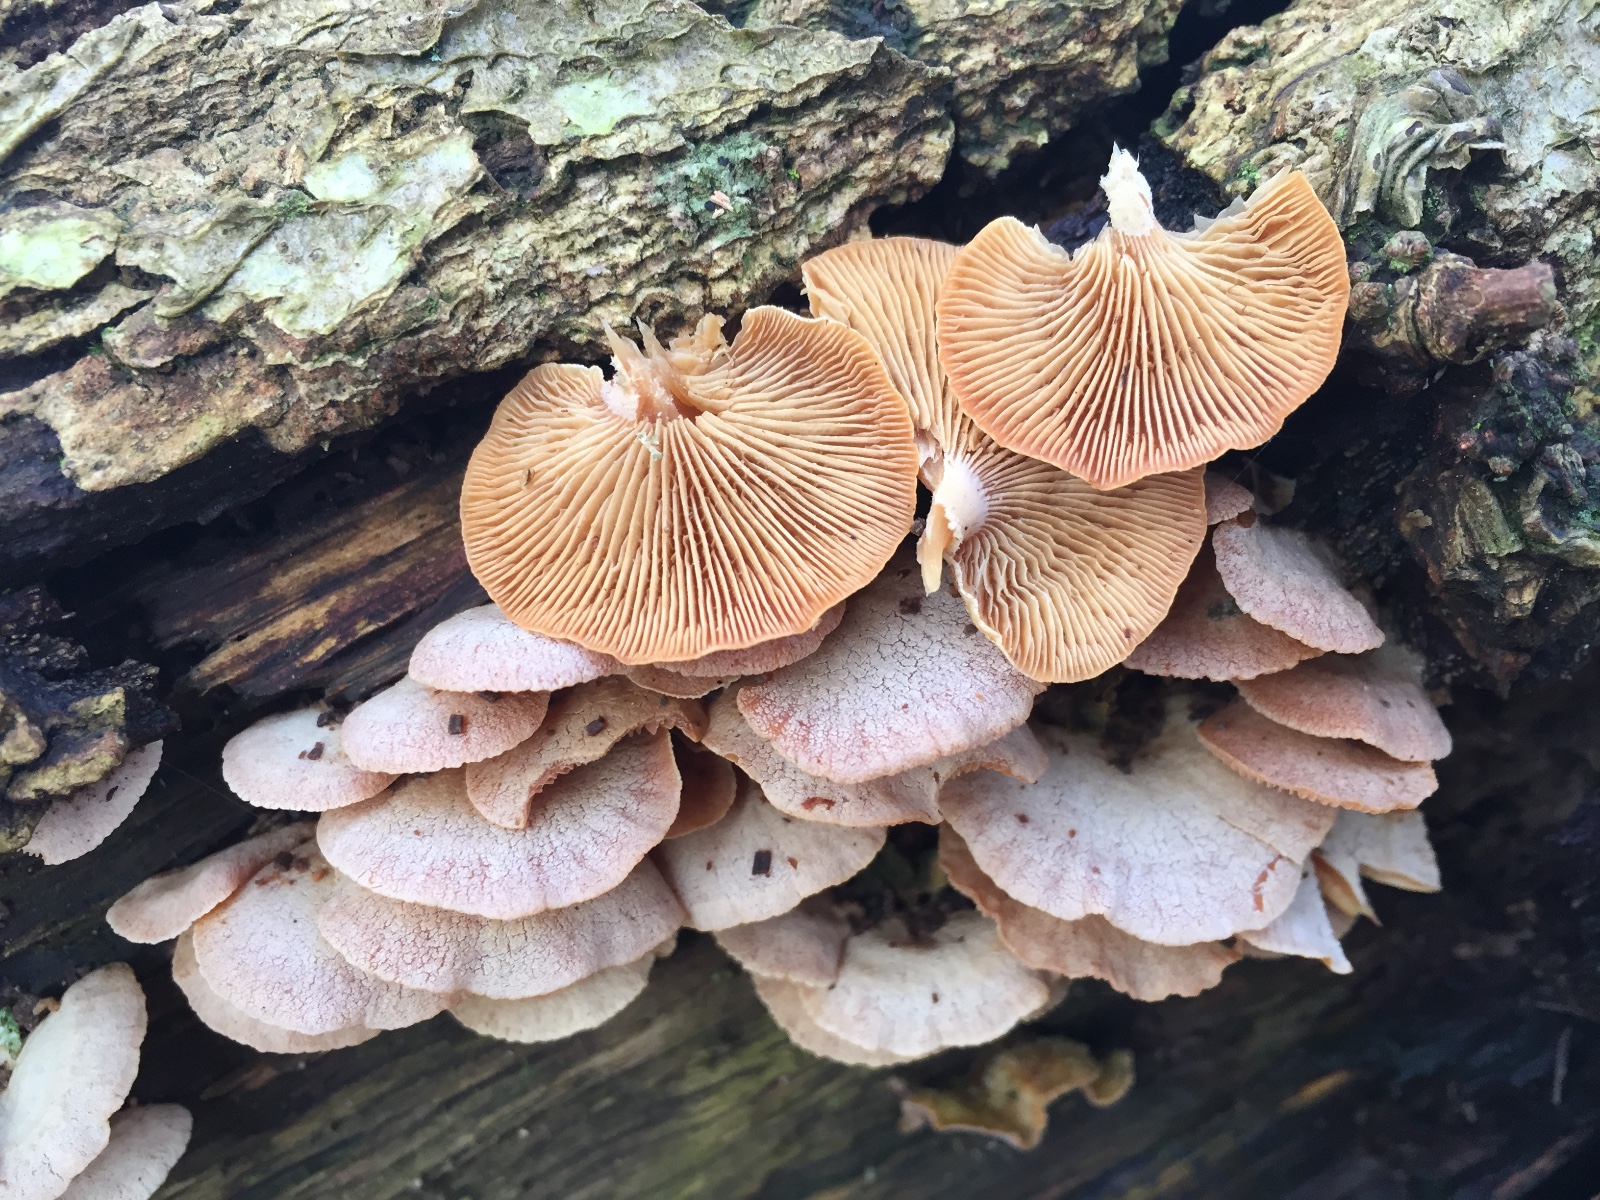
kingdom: Fungi
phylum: Basidiomycota
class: Agaricomycetes
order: Agaricales
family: Mycenaceae
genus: Panellus
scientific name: Panellus stipticus
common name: kliddet epaulethat
